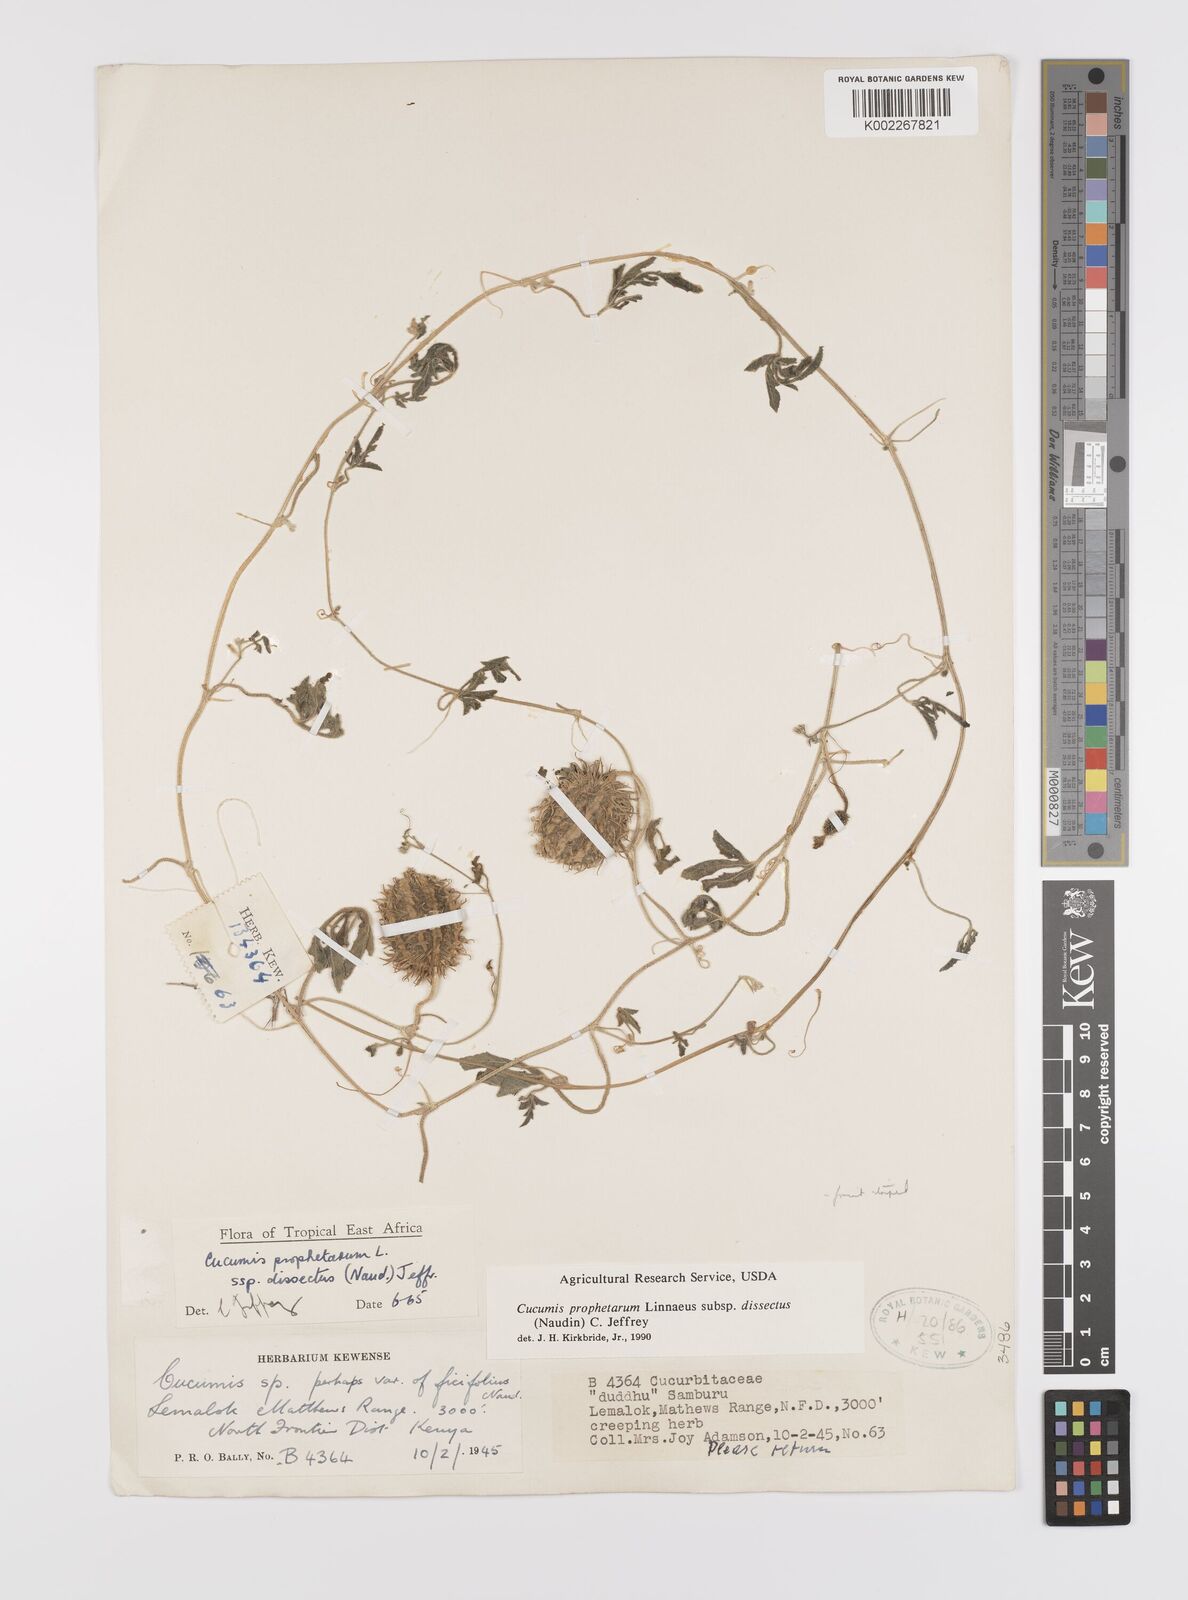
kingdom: Plantae
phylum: Tracheophyta
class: Magnoliopsida
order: Cucurbitales
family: Cucurbitaceae
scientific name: Cucurbitaceae
